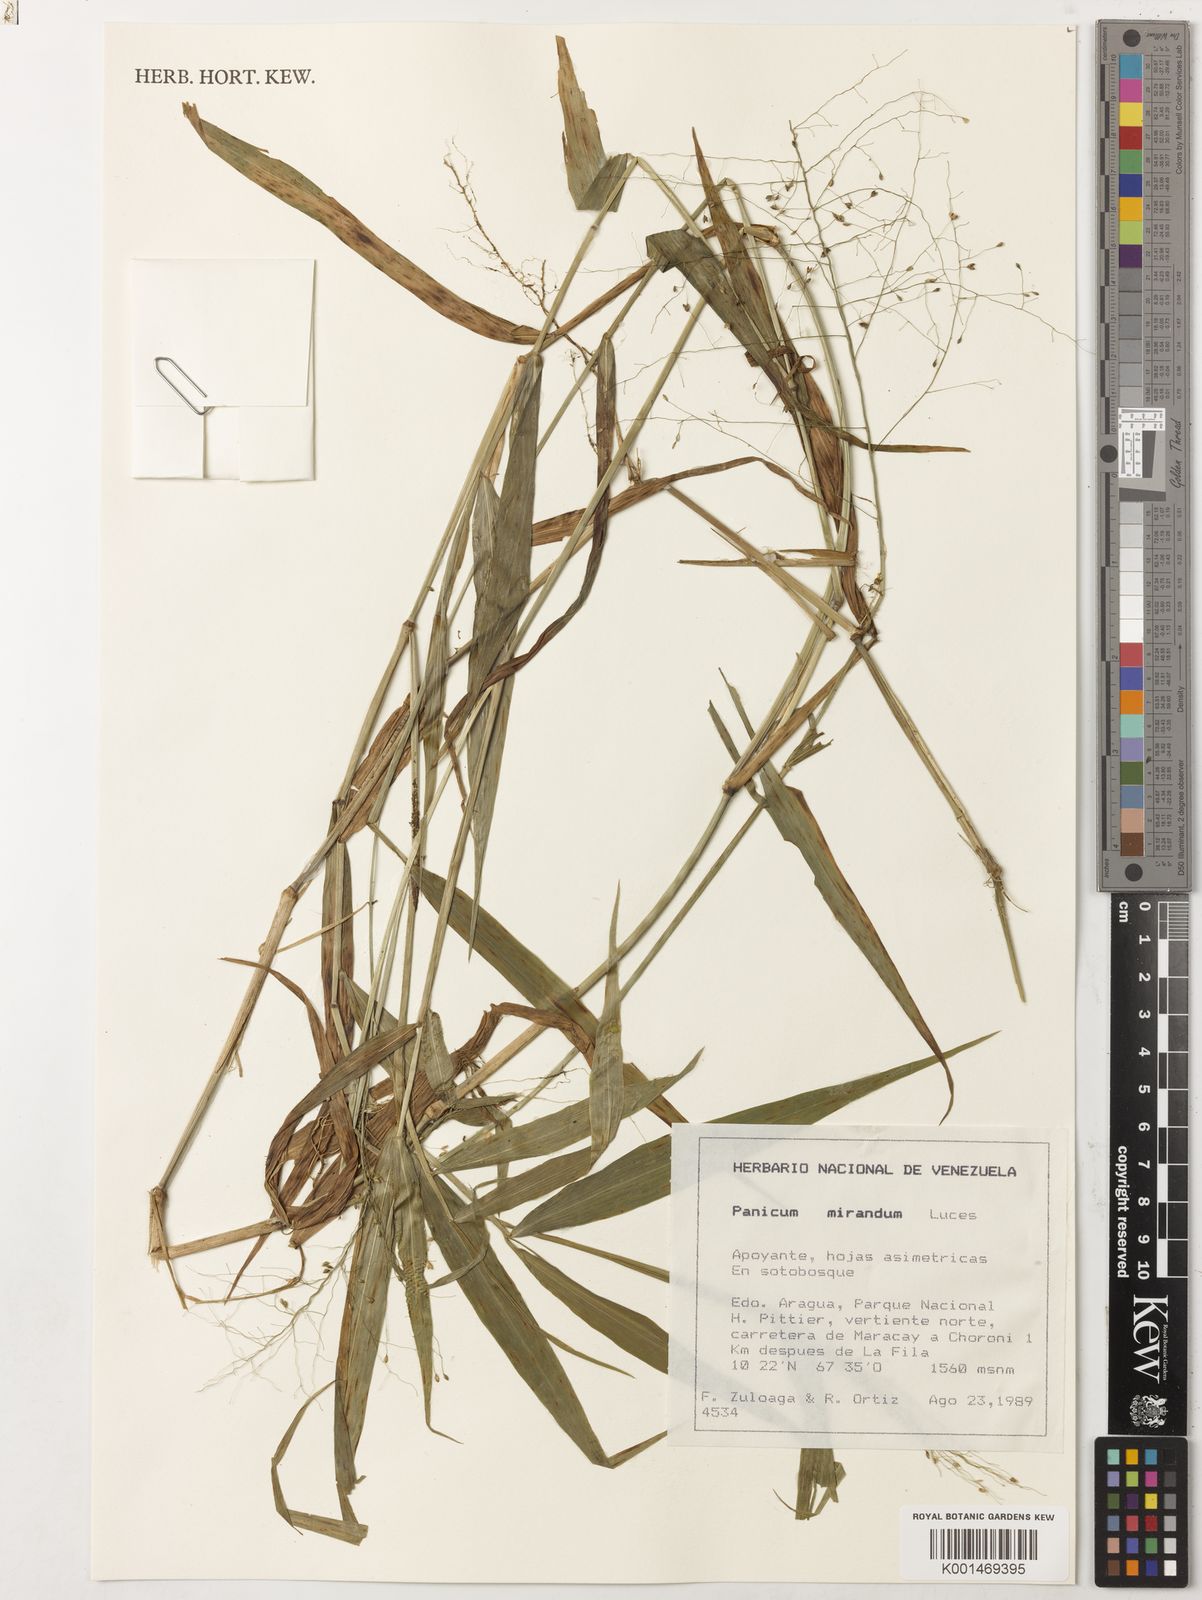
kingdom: Plantae
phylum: Tracheophyta
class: Liliopsida
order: Poales
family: Poaceae
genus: Dichanthelium
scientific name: Dichanthelium hebotes
